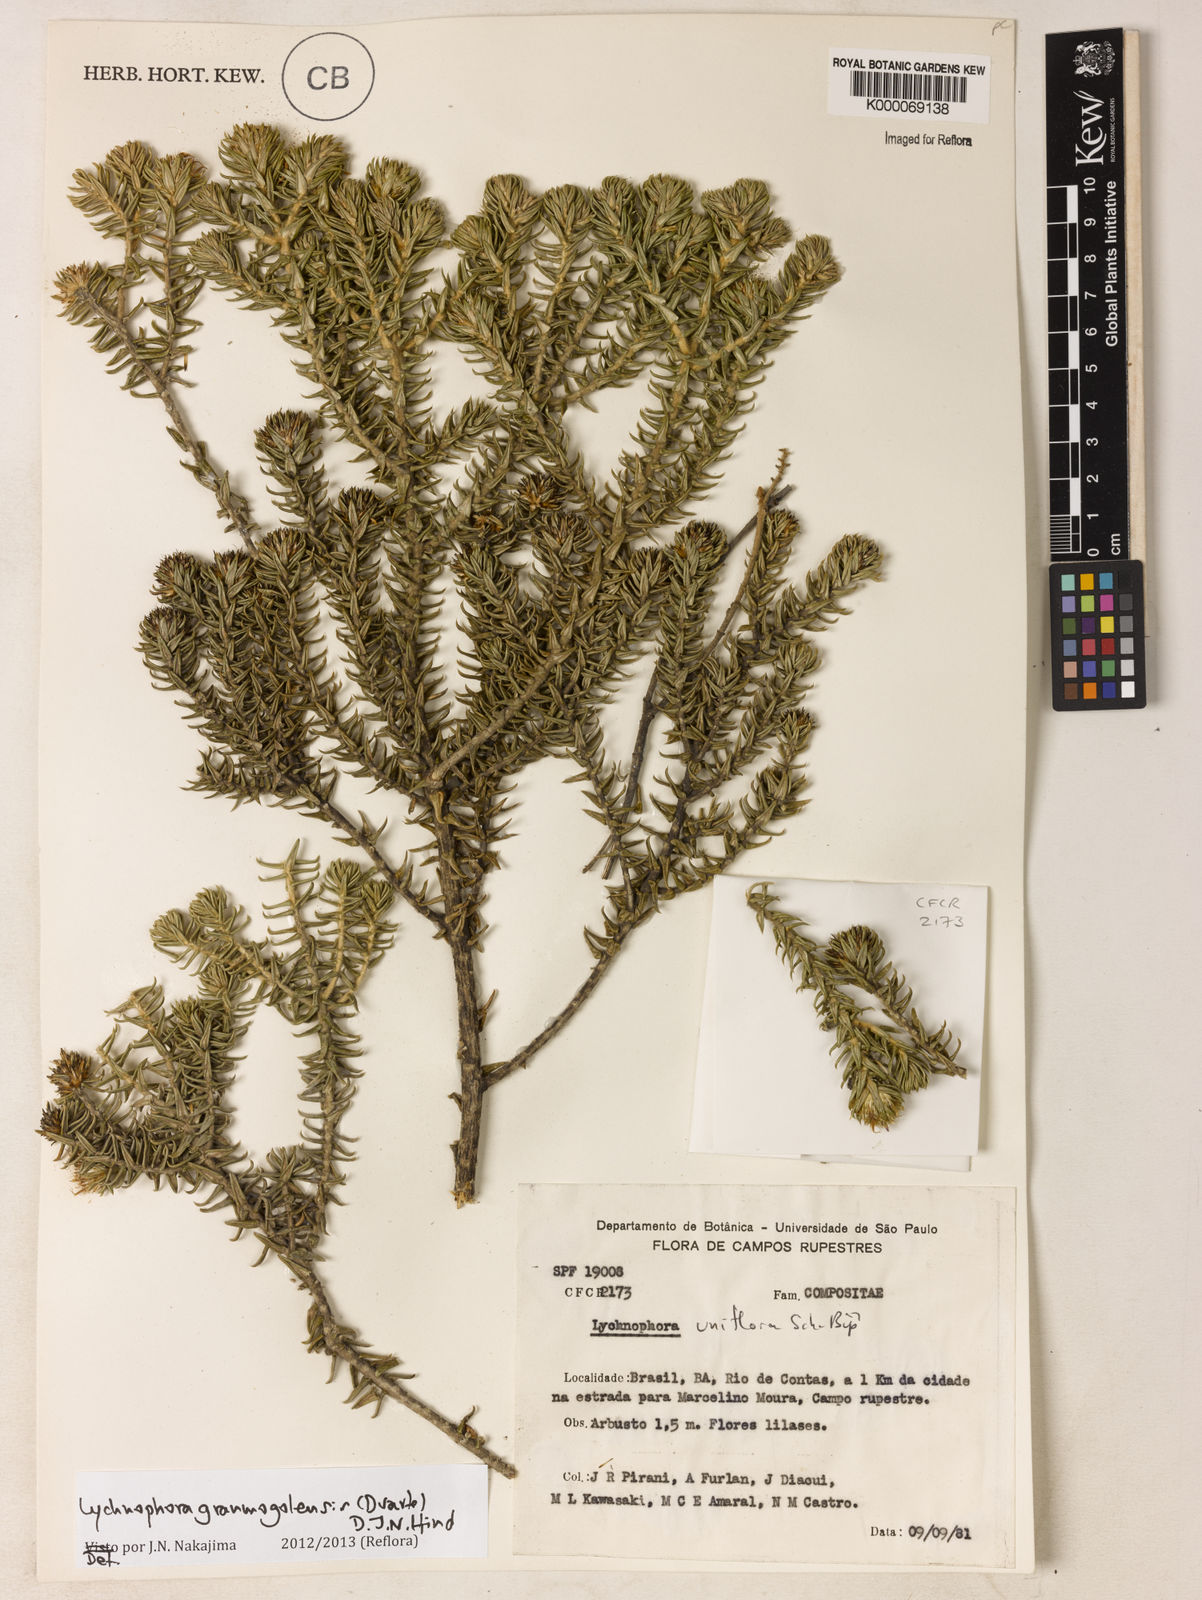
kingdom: Plantae
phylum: Tracheophyta
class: Magnoliopsida
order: Asterales
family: Asteraceae
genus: Lychnophora
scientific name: Lychnophora uniflora
